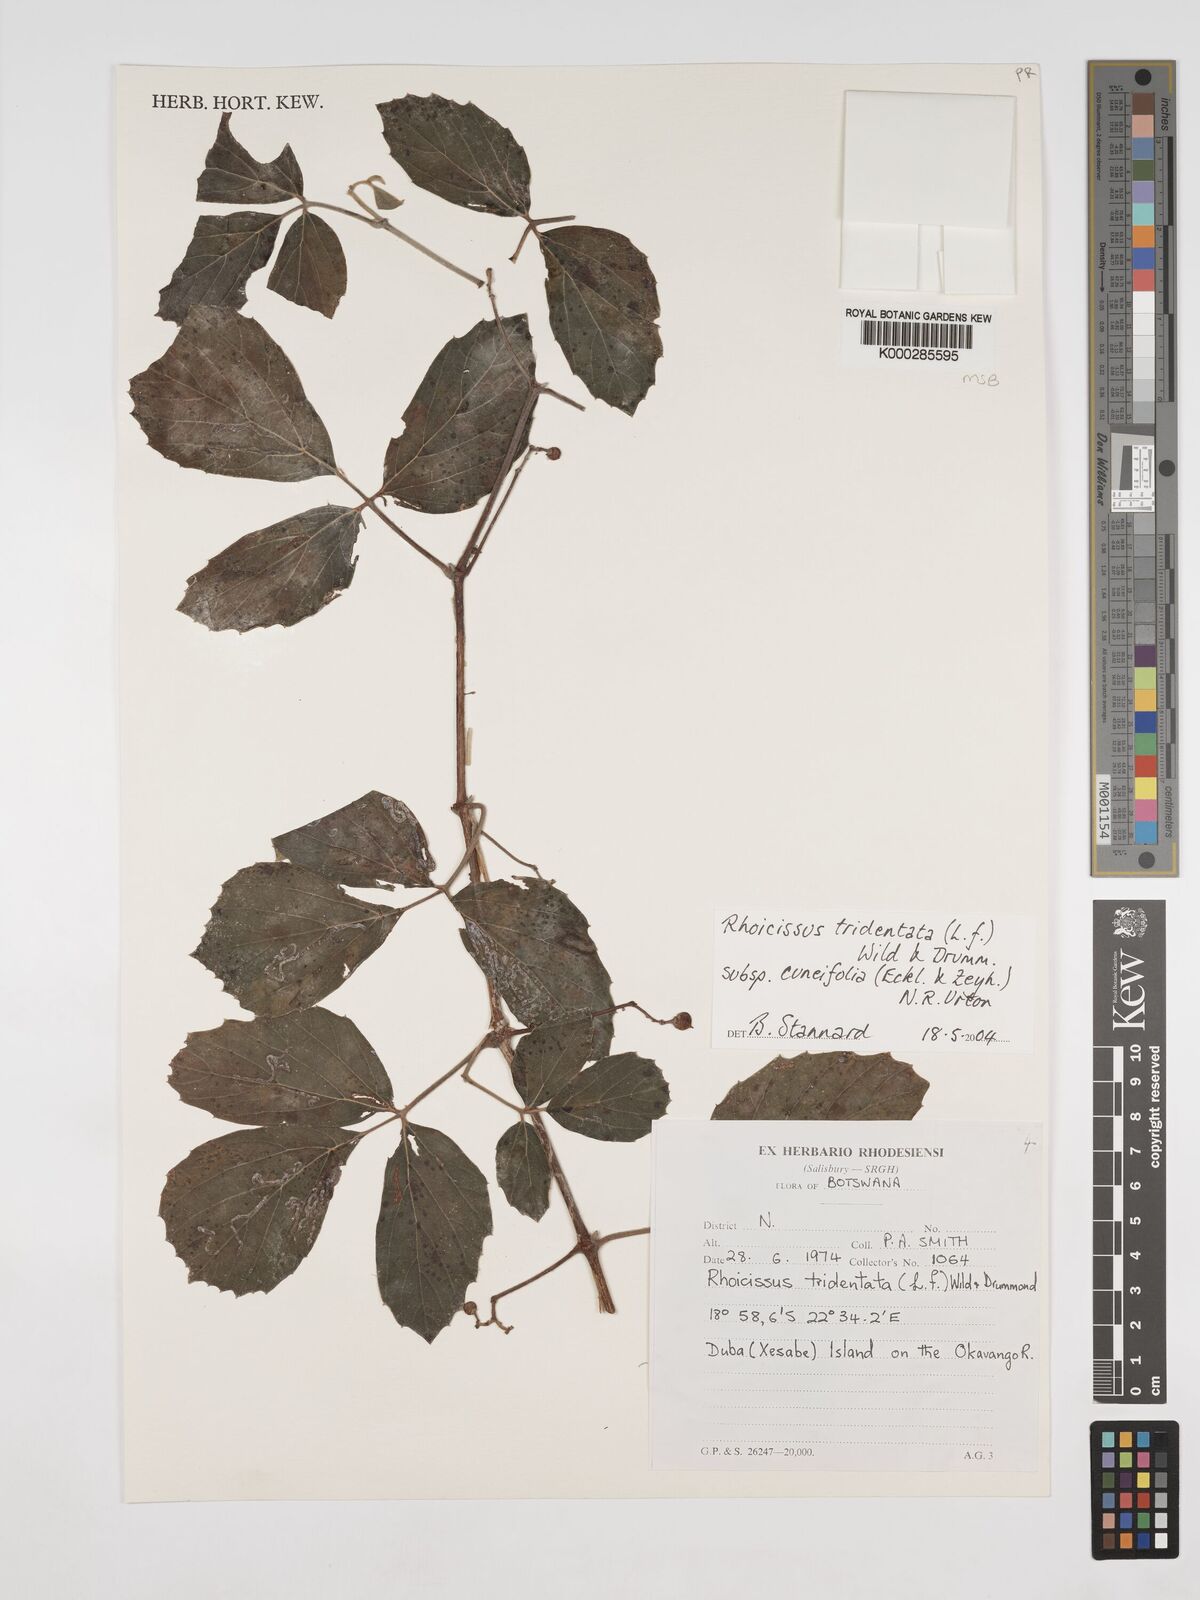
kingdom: Plantae
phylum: Tracheophyta
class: Magnoliopsida
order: Vitales
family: Vitaceae
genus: Rhoicissus
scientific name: Rhoicissus tridentata
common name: Common forest grape
